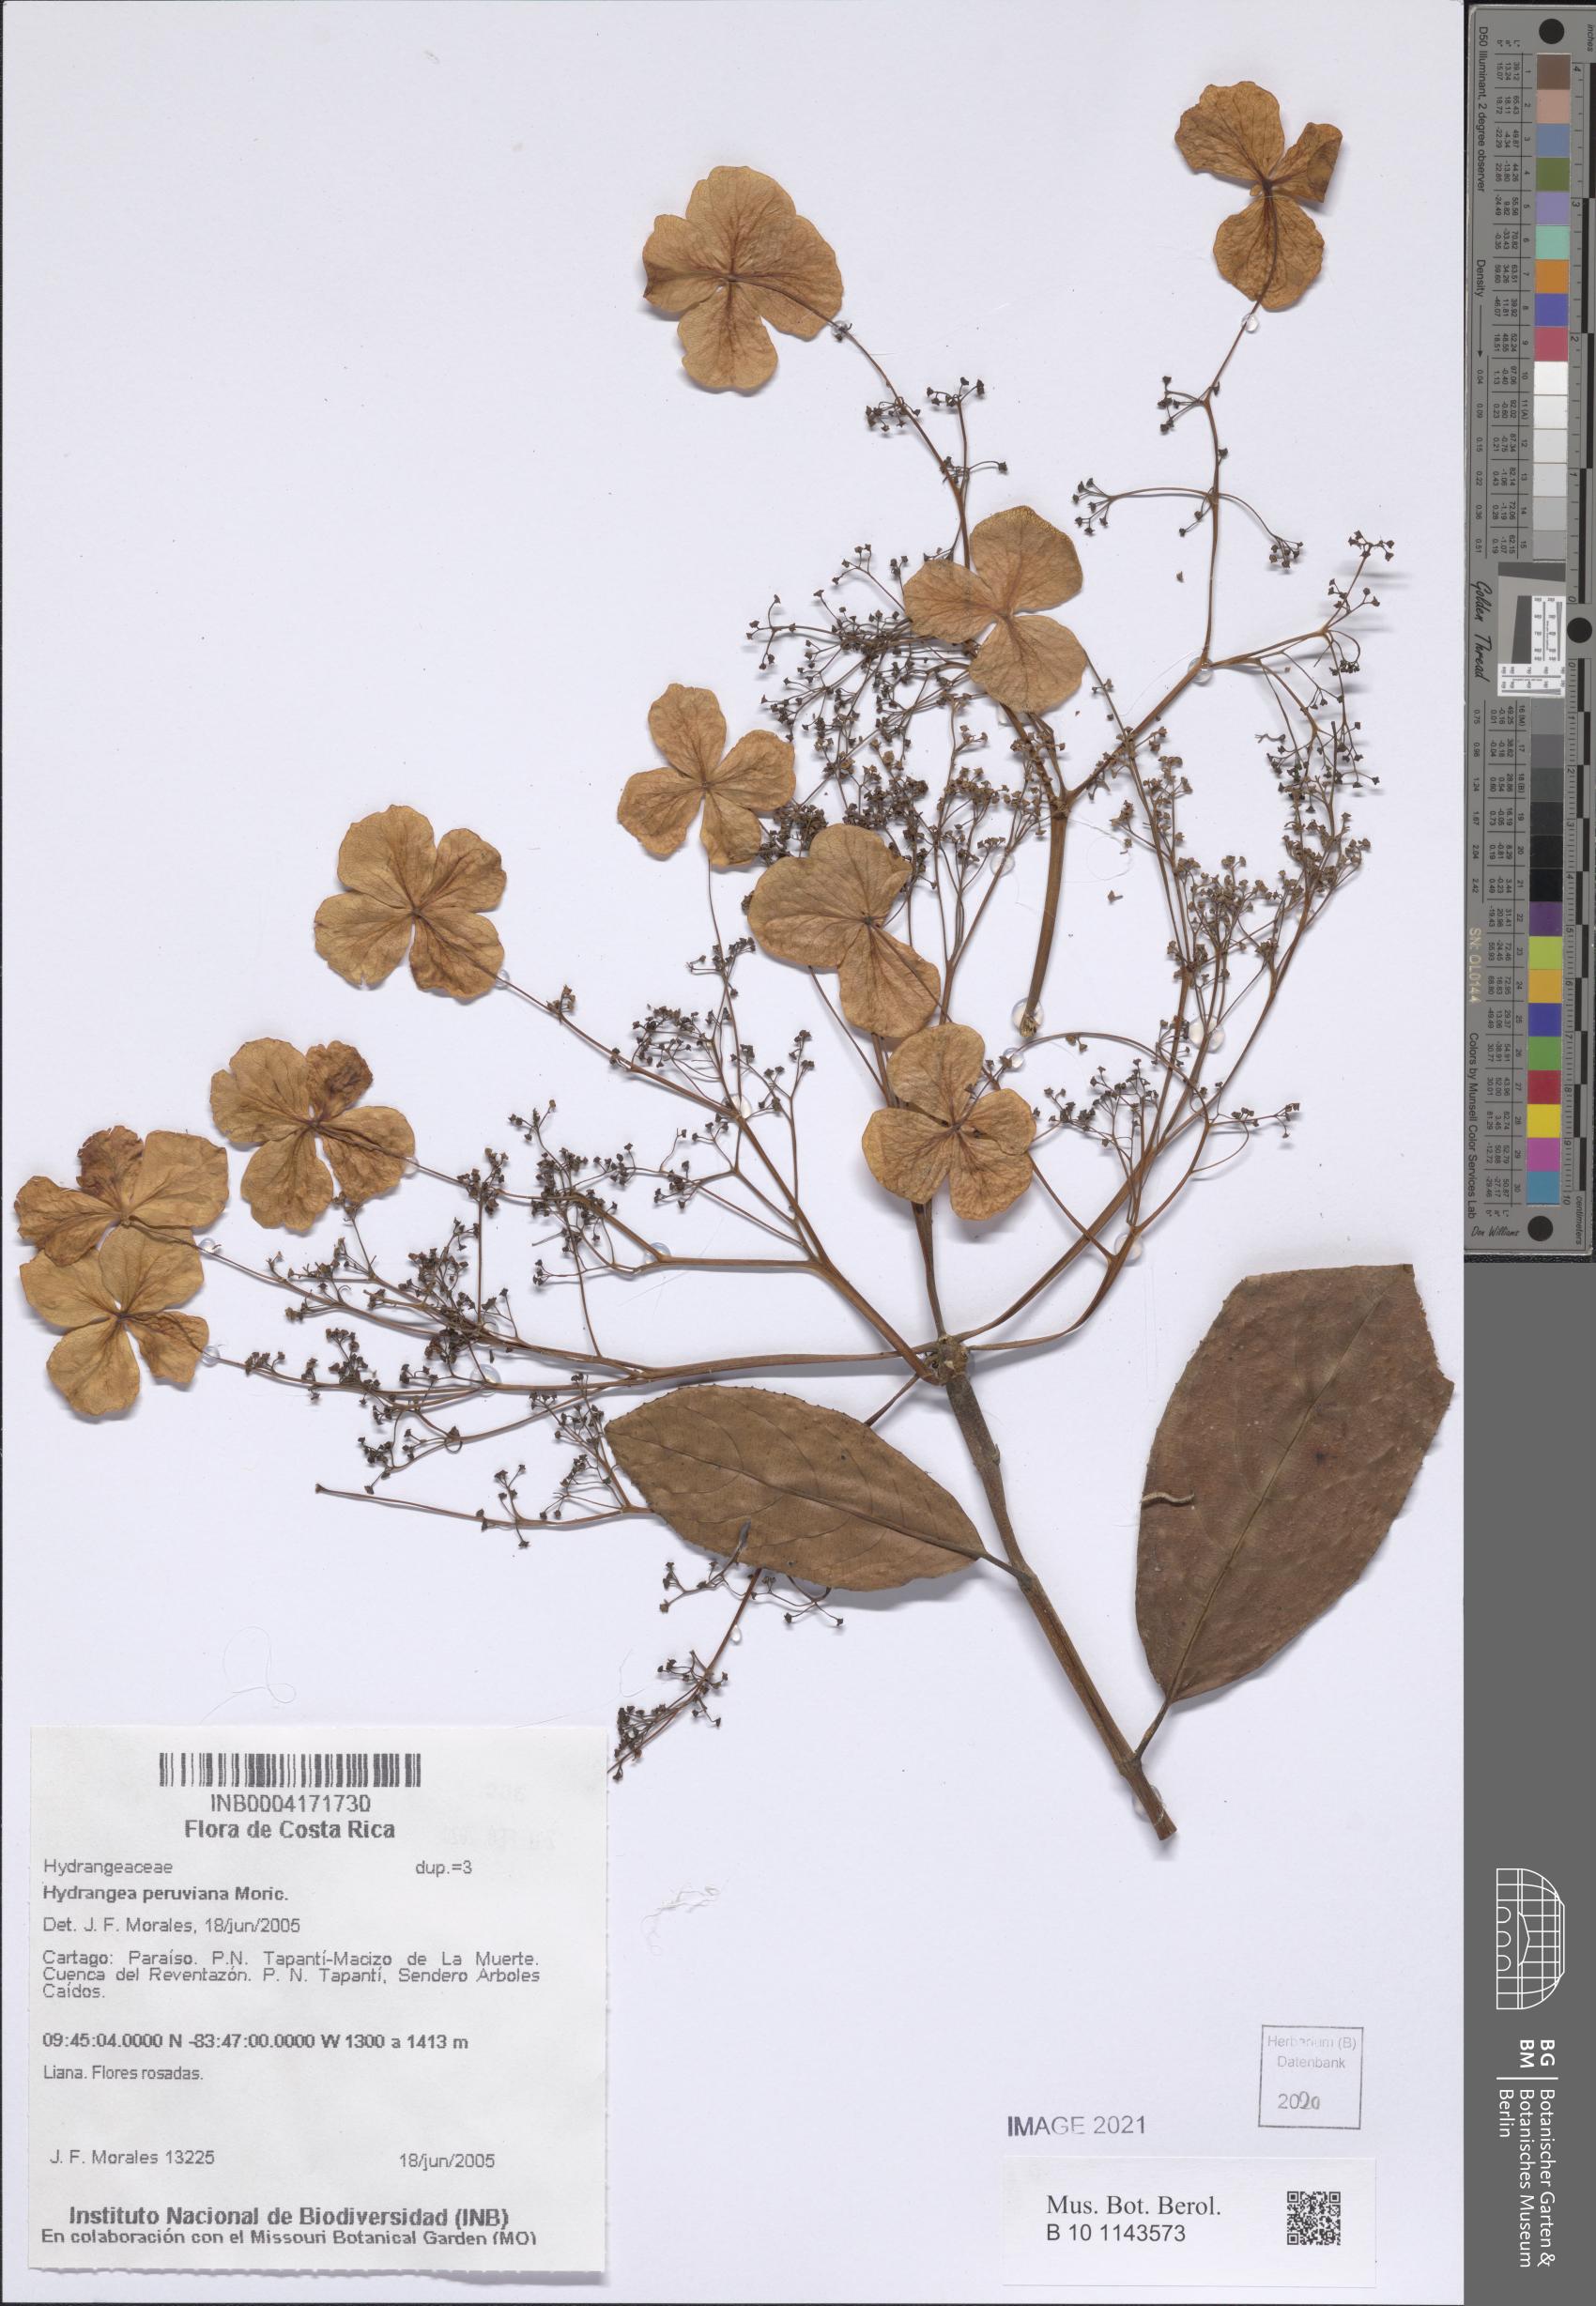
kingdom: Plantae
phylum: Tracheophyta
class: Magnoliopsida
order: Cornales
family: Hydrangeaceae
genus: Hydrangea
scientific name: Hydrangea peruviana
